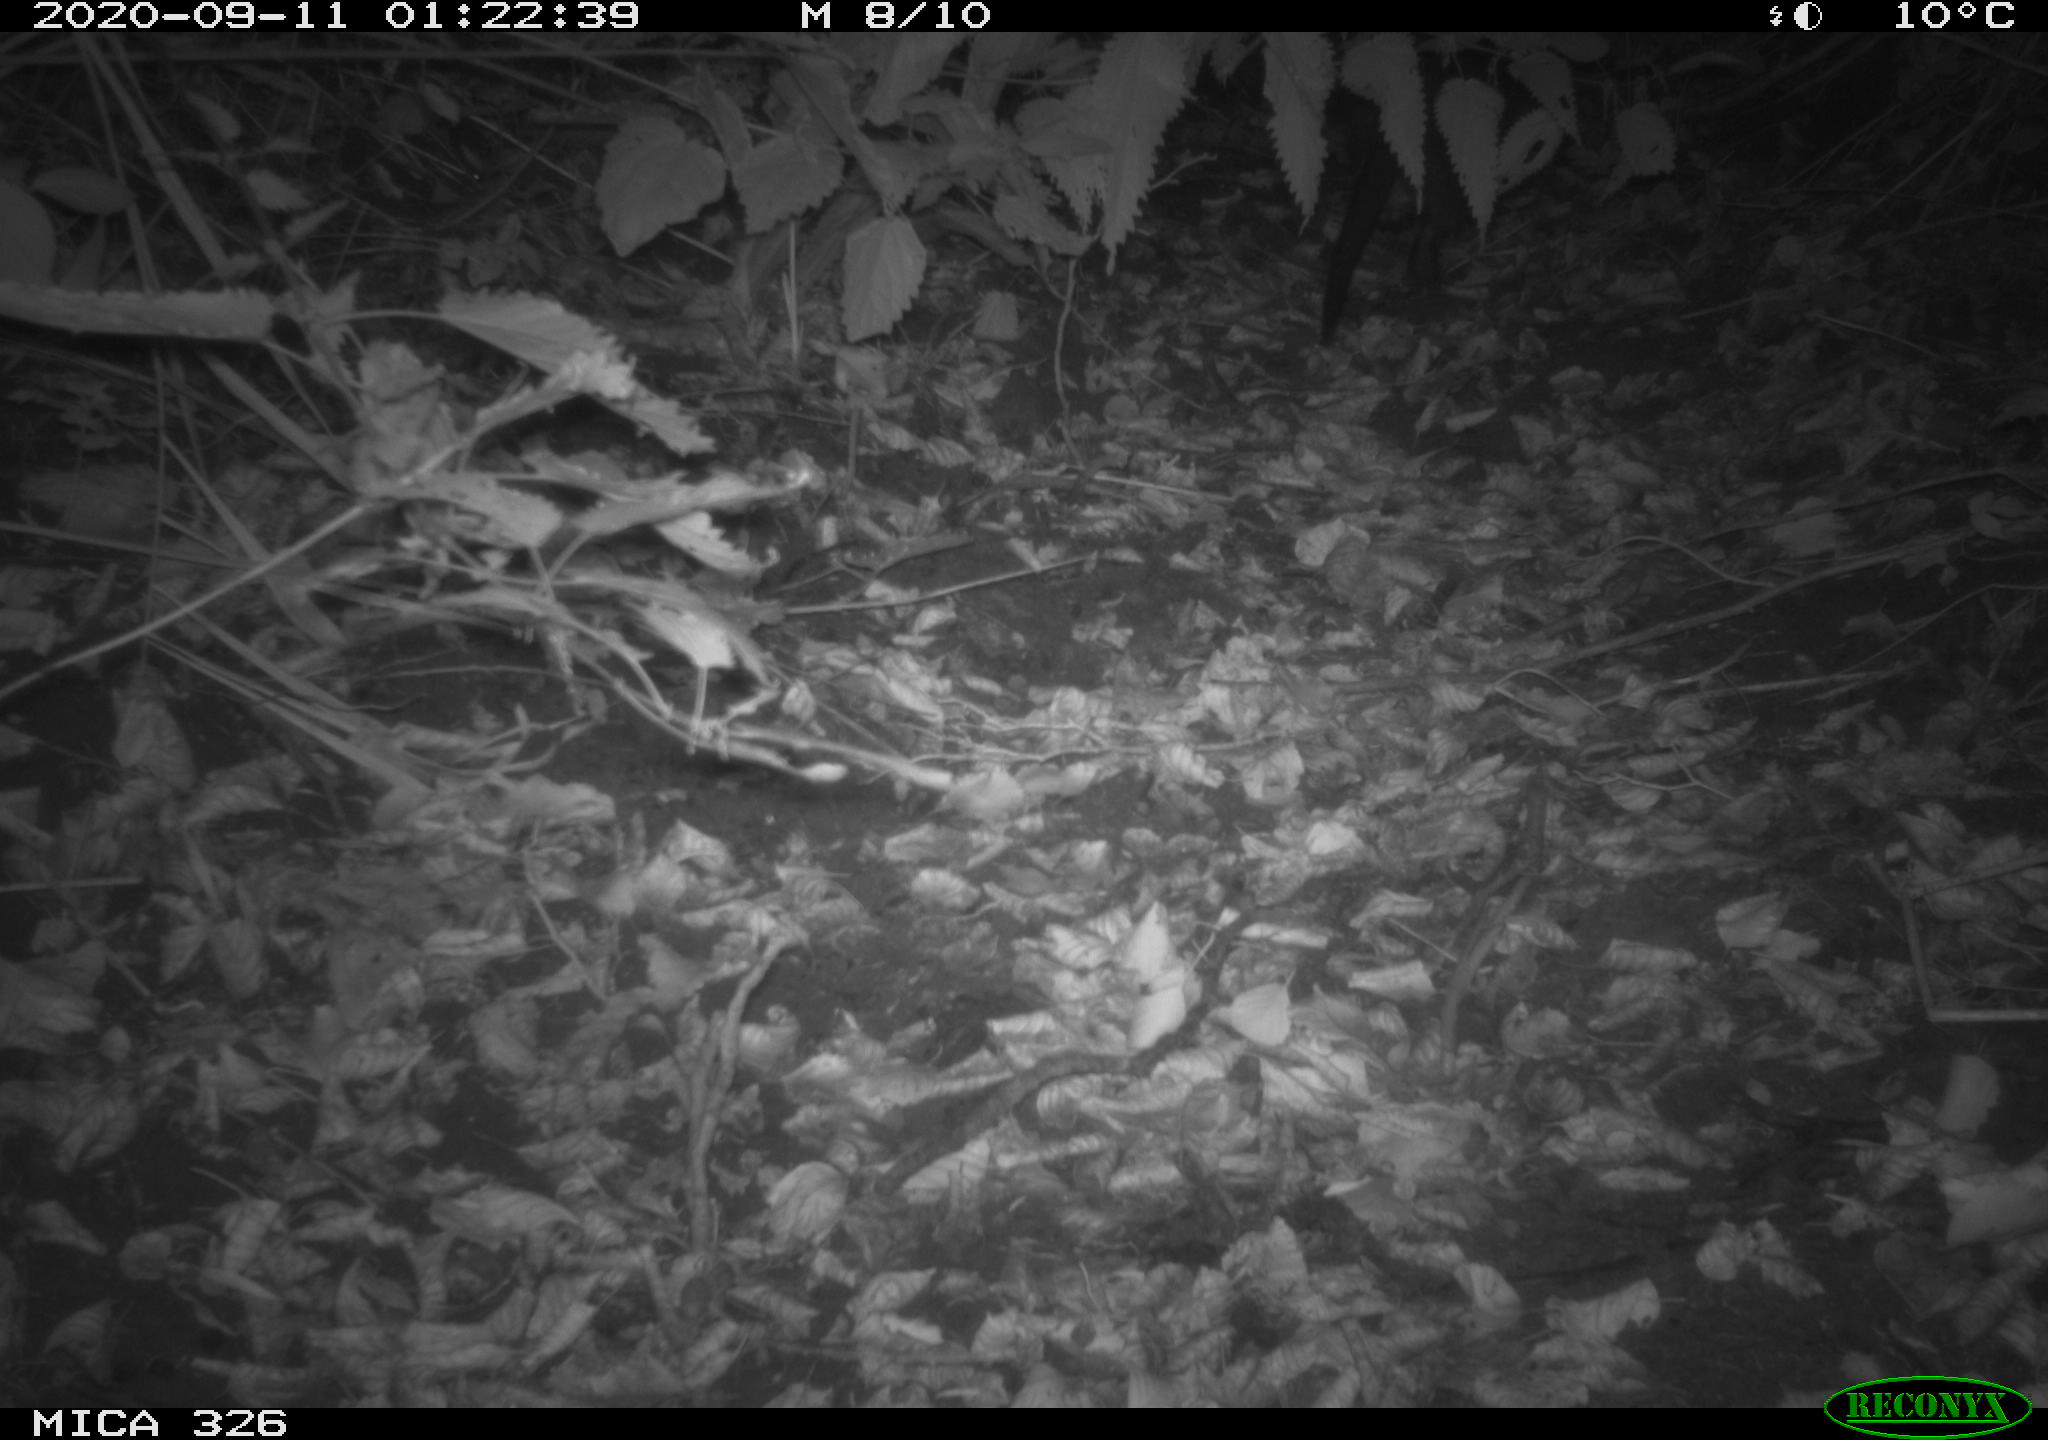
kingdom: Animalia
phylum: Chordata
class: Mammalia
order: Rodentia
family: Myocastoridae
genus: Myocastor
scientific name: Myocastor coypus
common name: Coypu
